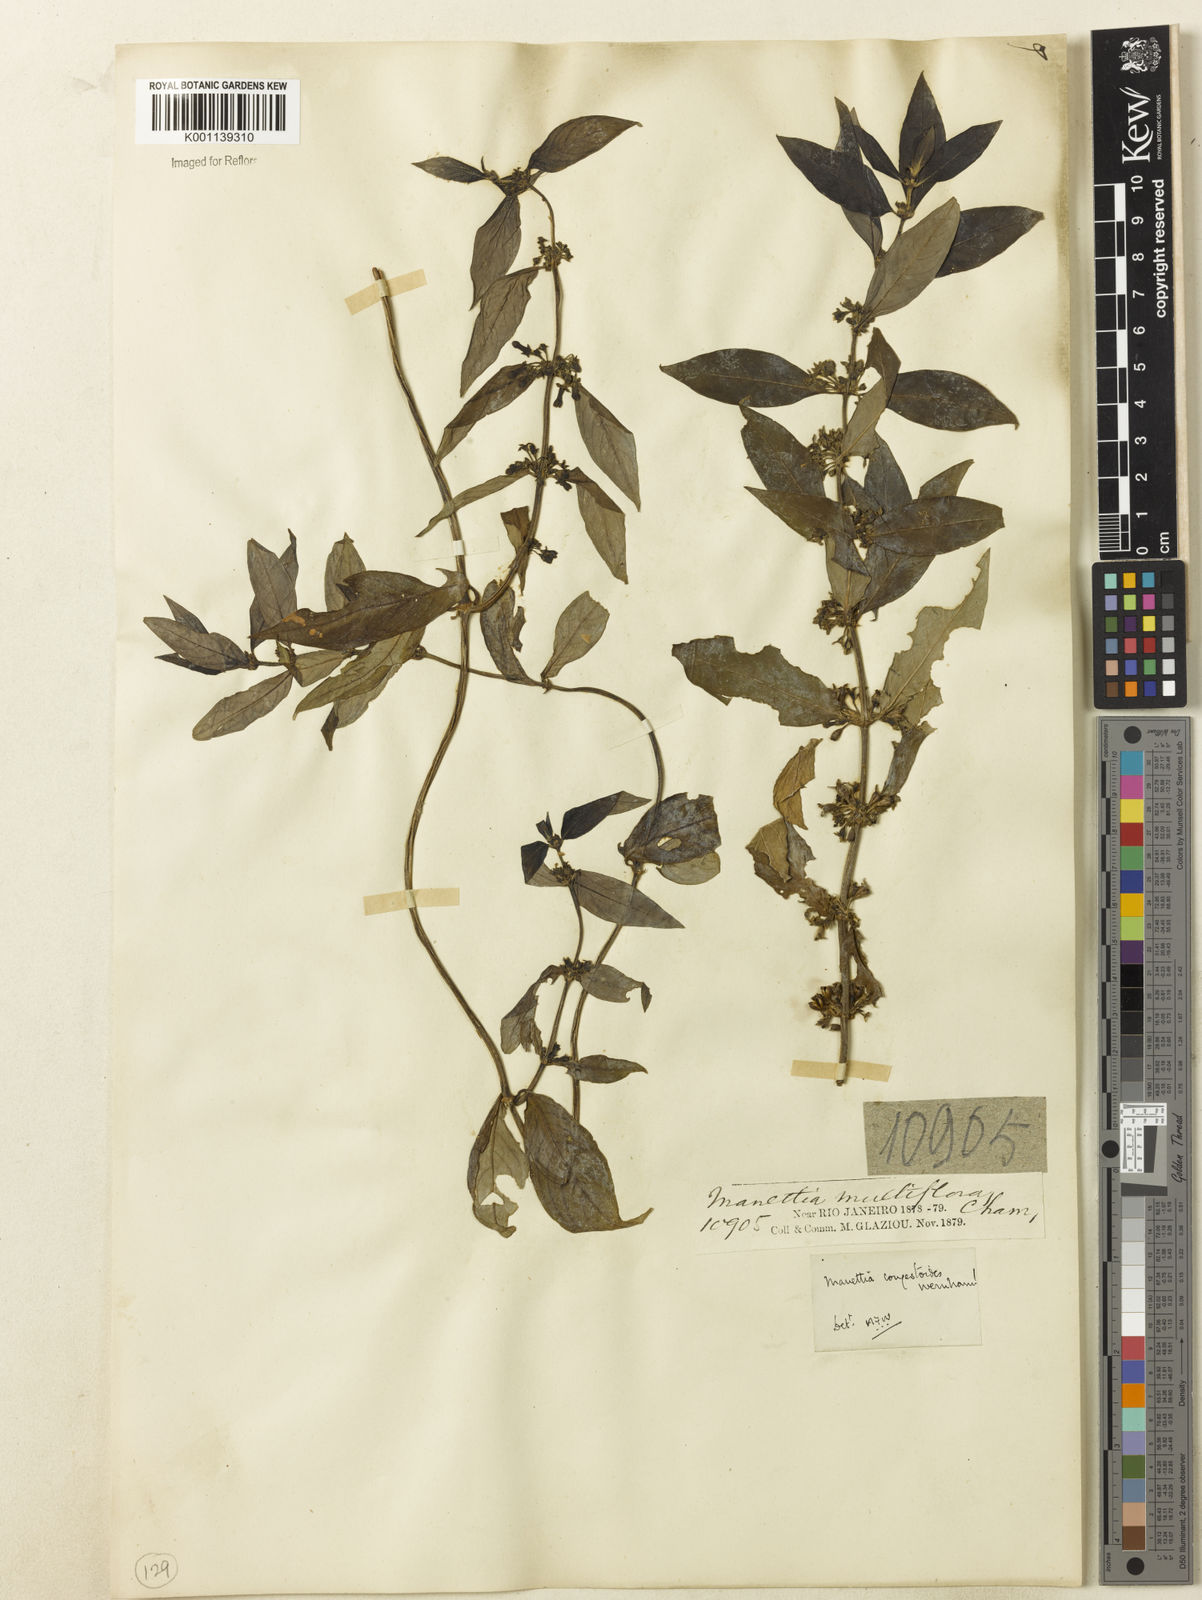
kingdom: Plantae
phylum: Tracheophyta
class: Magnoliopsida
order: Gentianales
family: Rubiaceae
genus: Manettia
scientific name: Manettia congestoides
